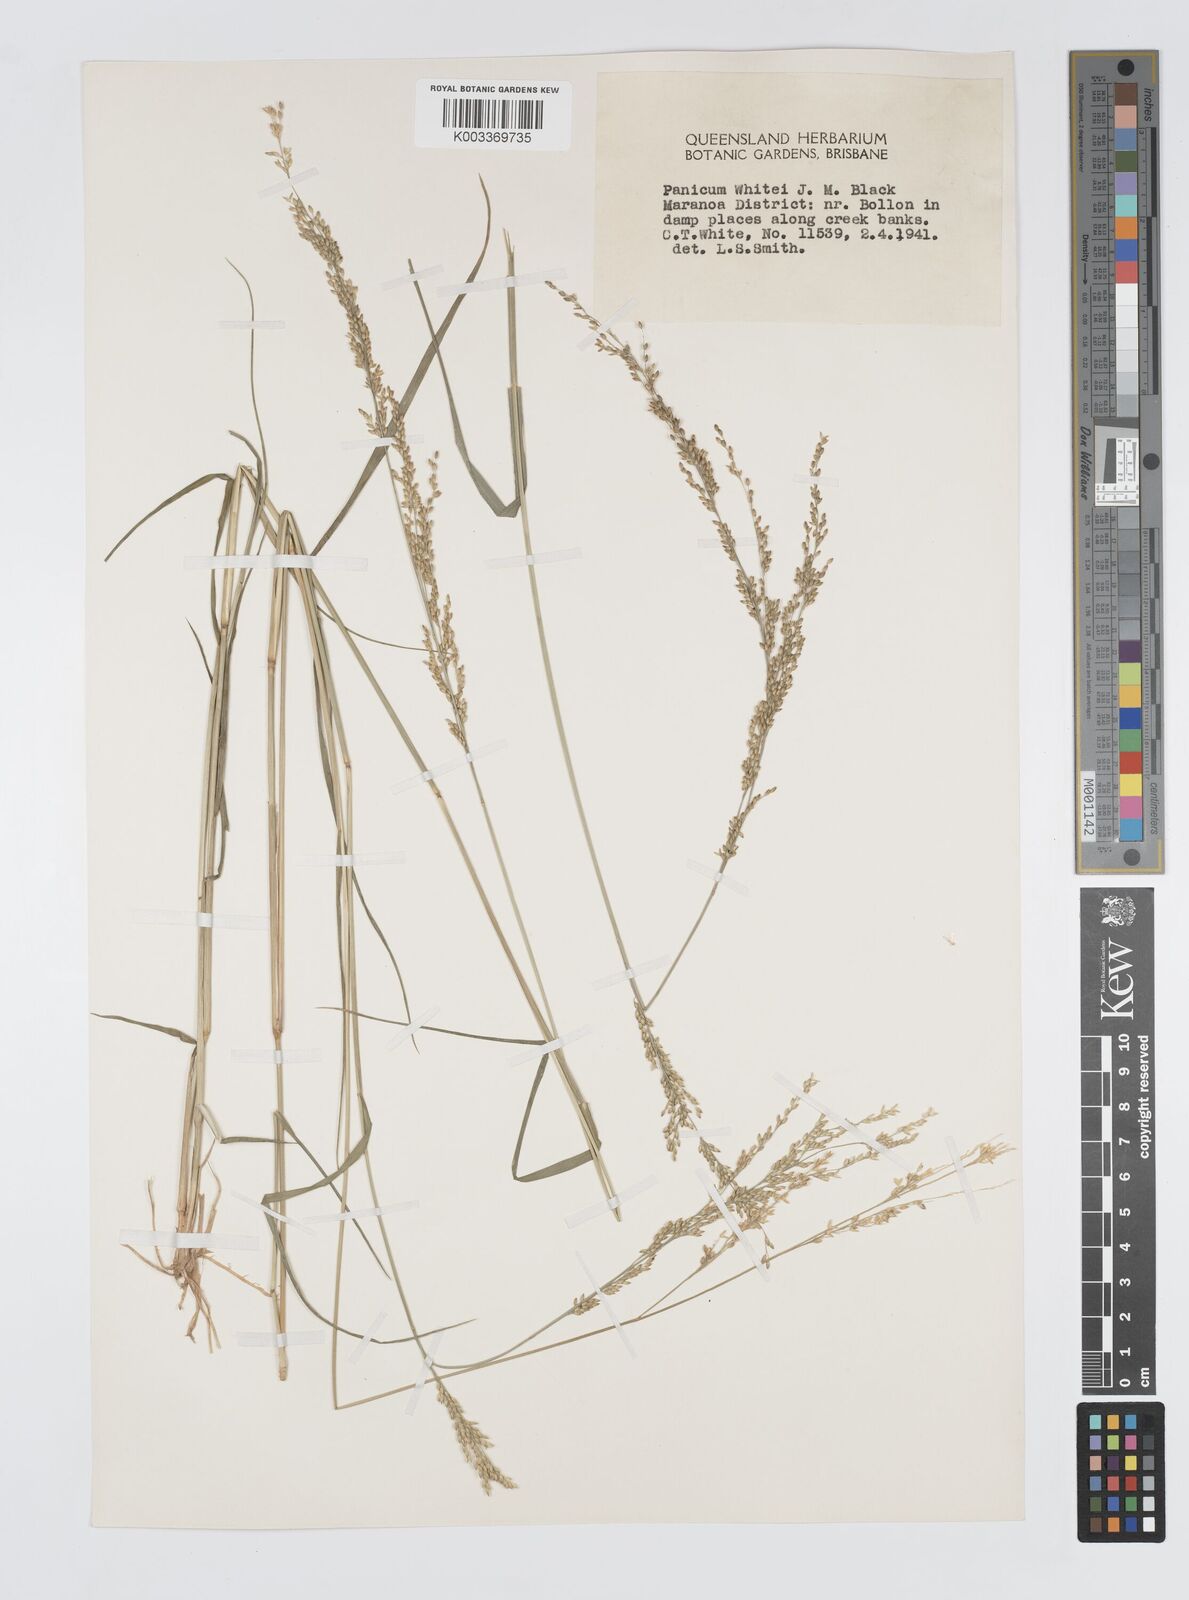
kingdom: Plantae
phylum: Tracheophyta
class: Liliopsida
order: Poales
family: Poaceae
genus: Panicum
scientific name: Panicum laevinode
